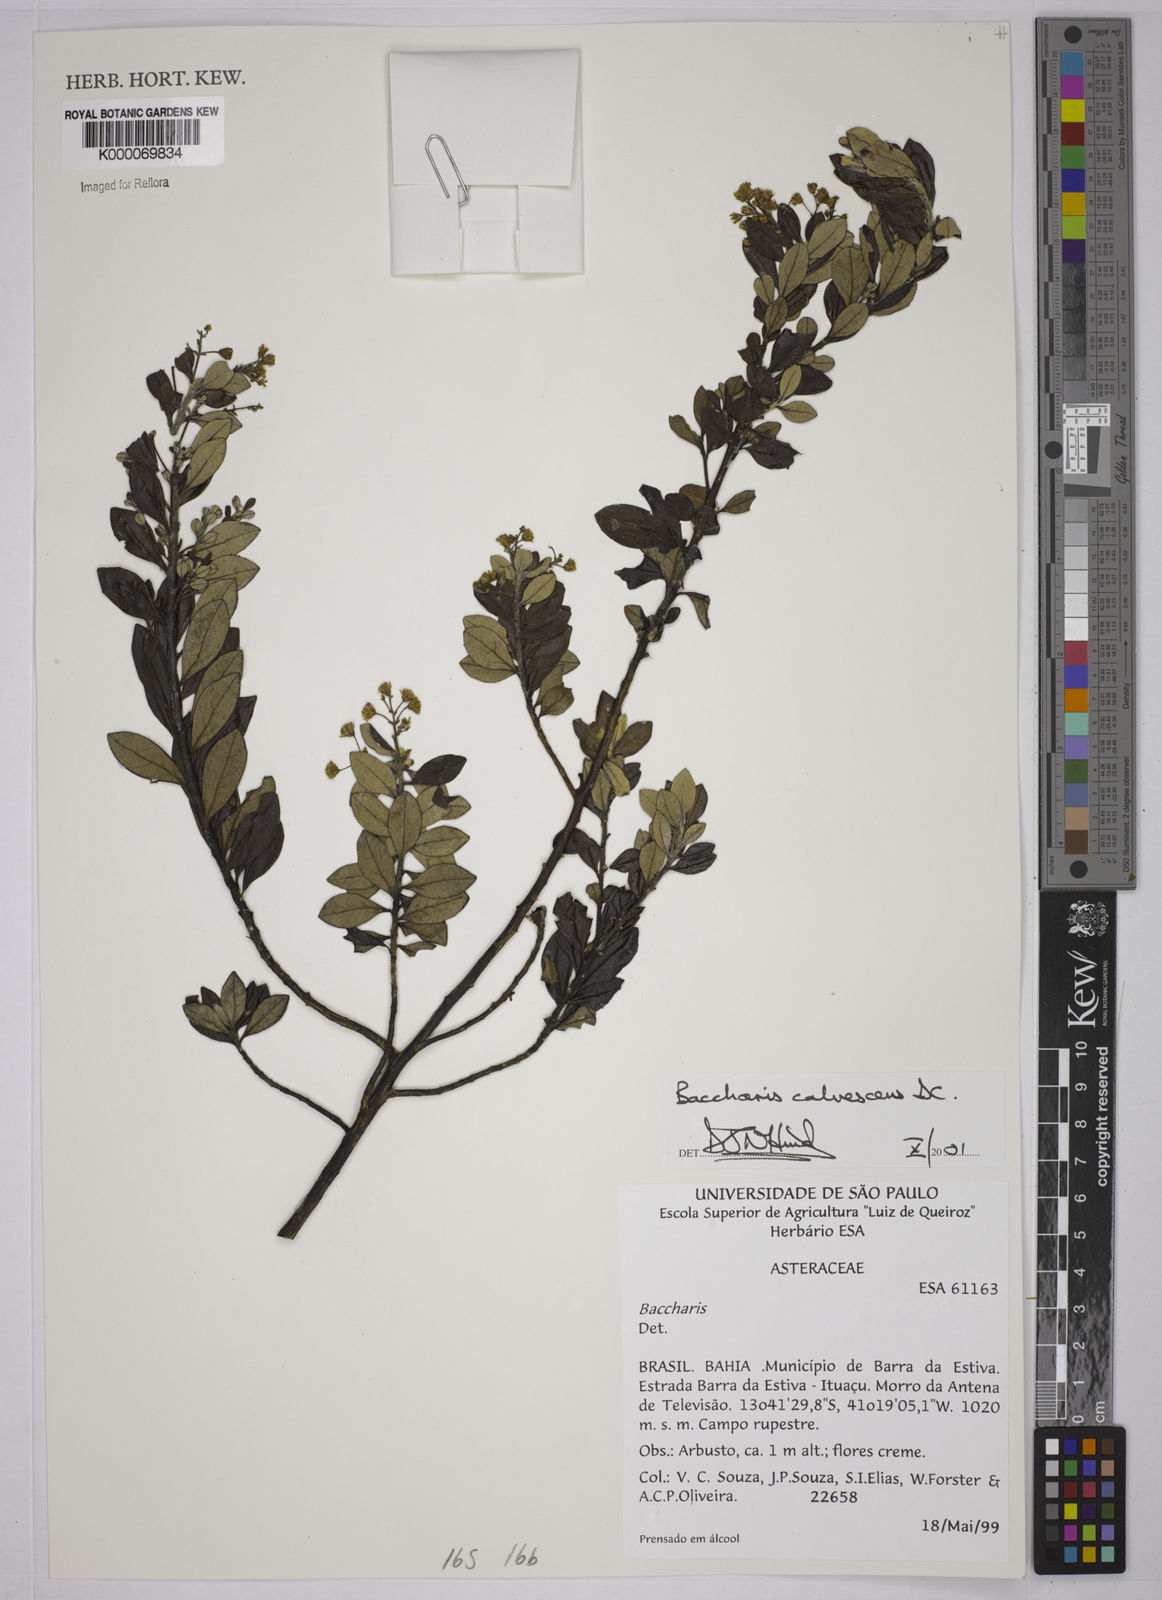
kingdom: Plantae
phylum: Tracheophyta
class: Magnoliopsida
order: Asterales
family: Asteraceae
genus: Baccharis
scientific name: Baccharis calvescens
